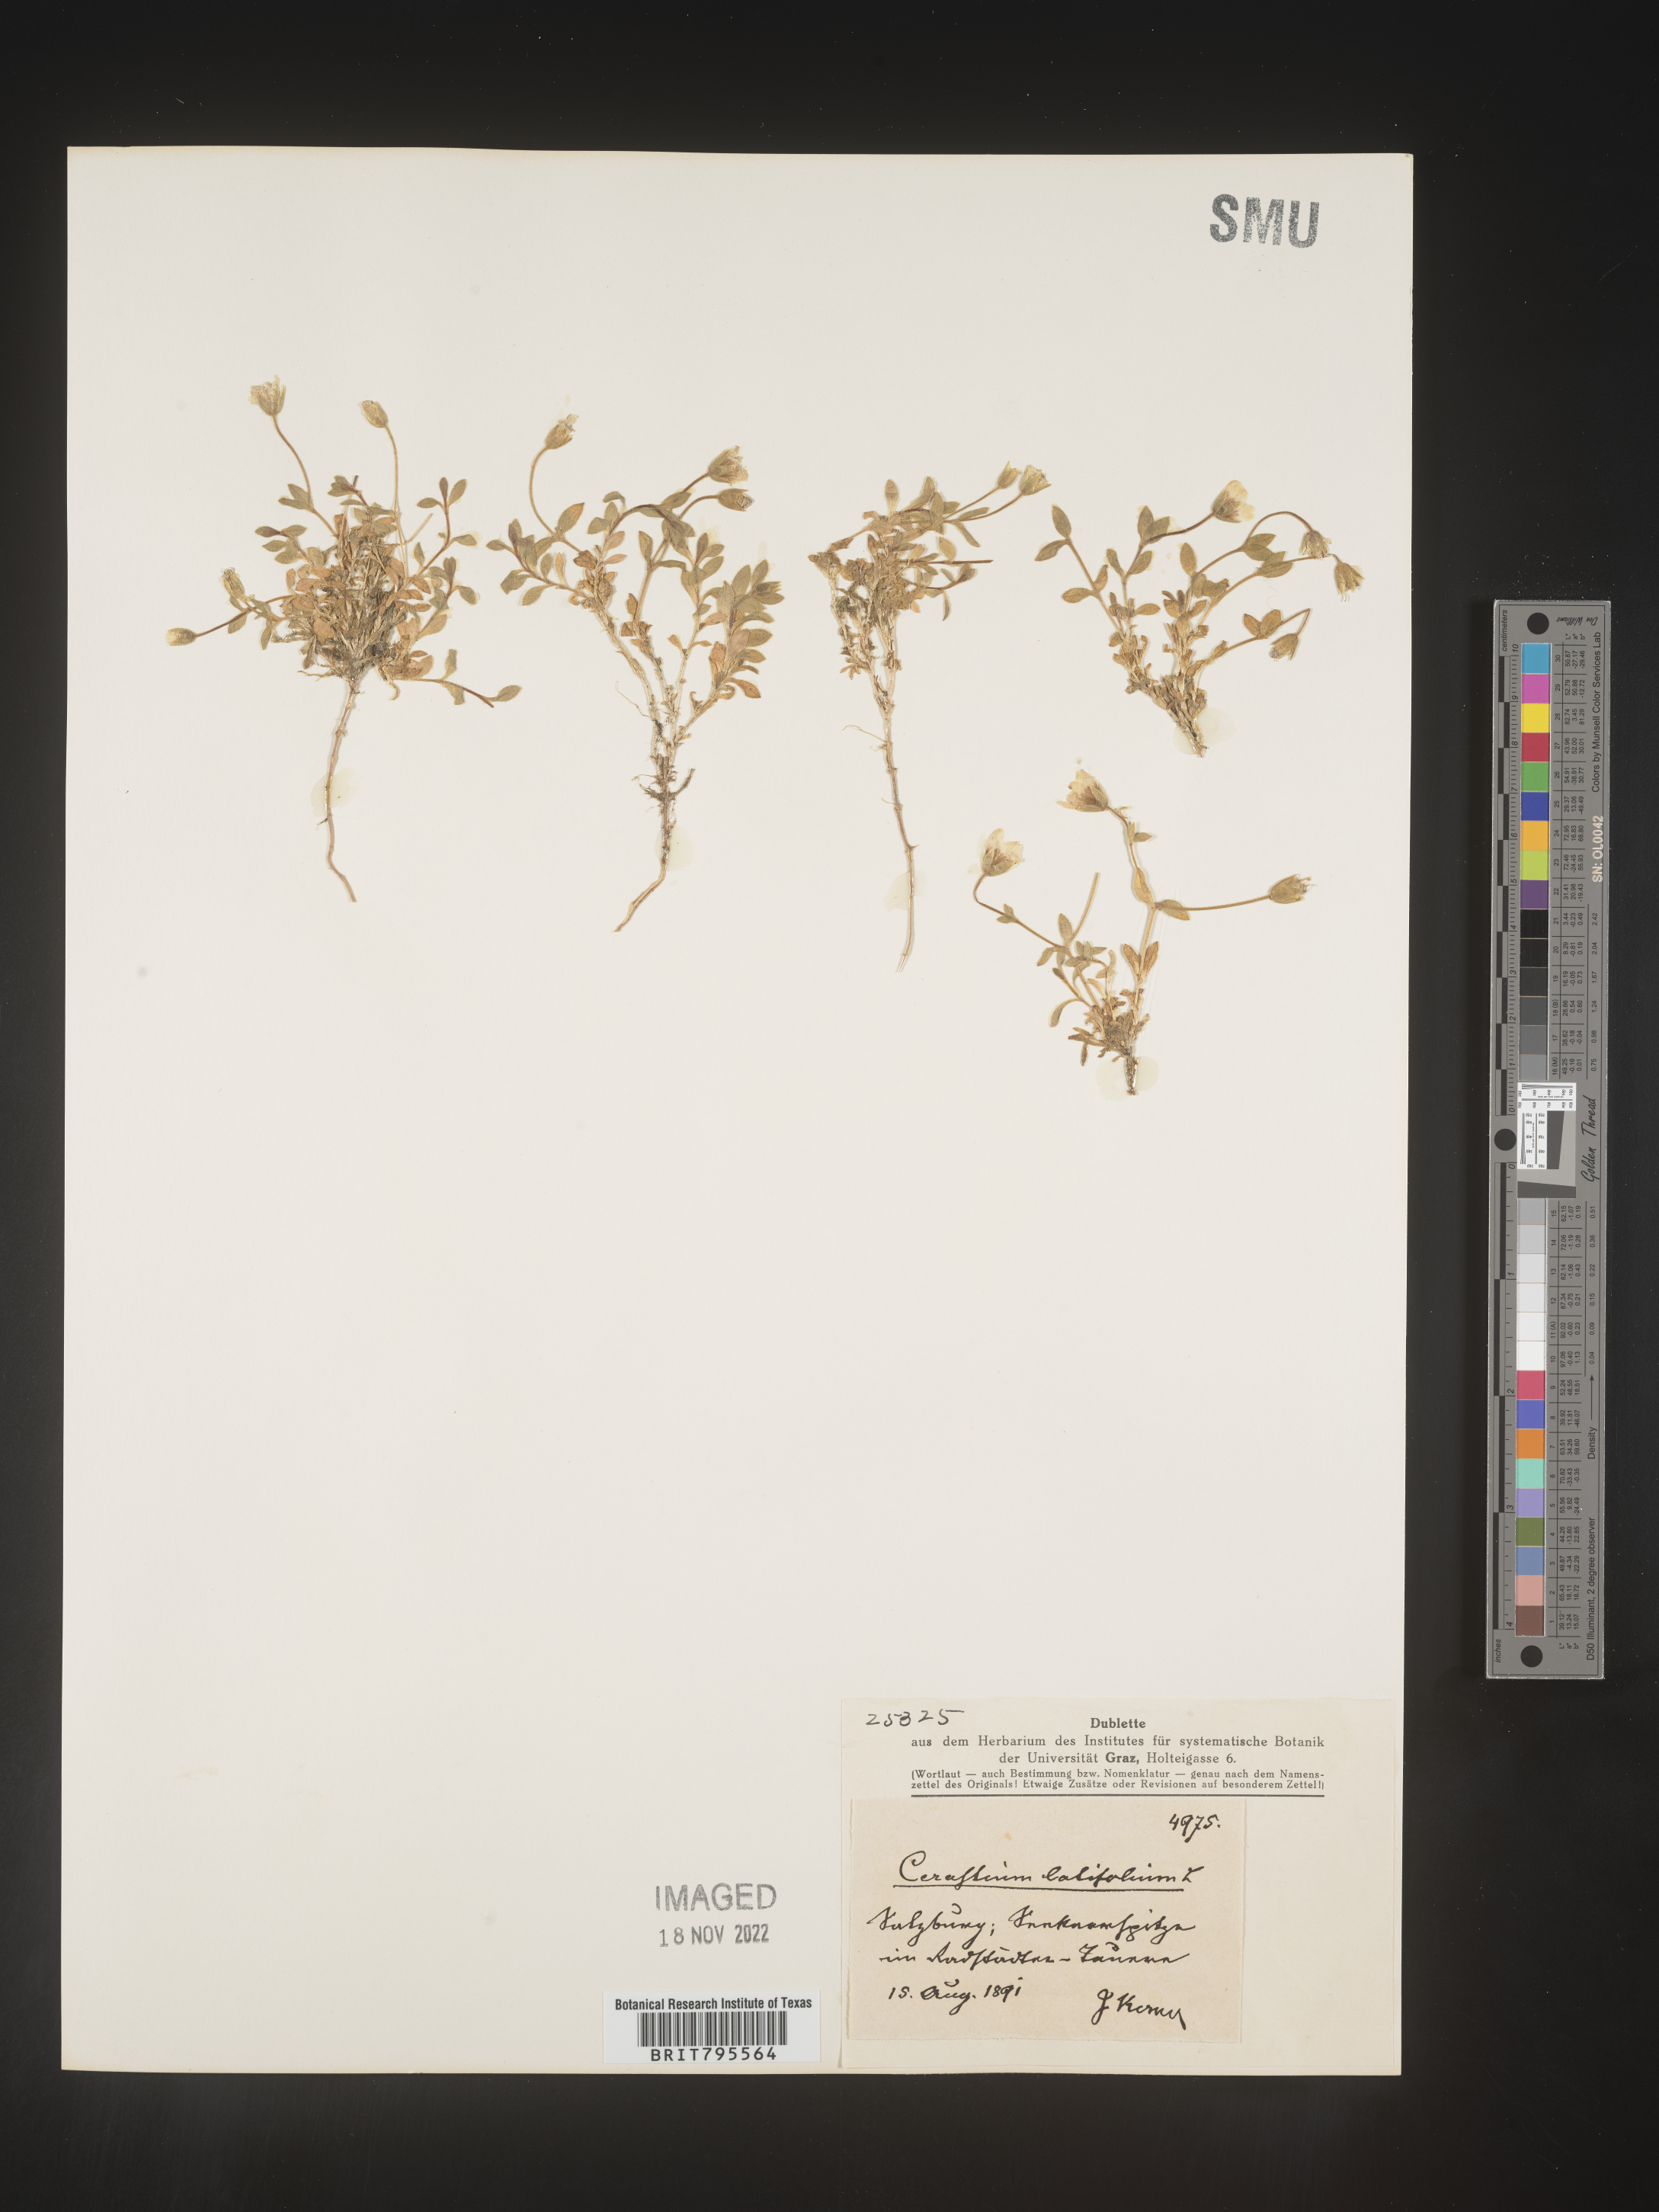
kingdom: Plantae
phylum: Tracheophyta
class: Magnoliopsida
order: Caryophyllales
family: Caryophyllaceae
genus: Cerastium
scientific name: Cerastium
